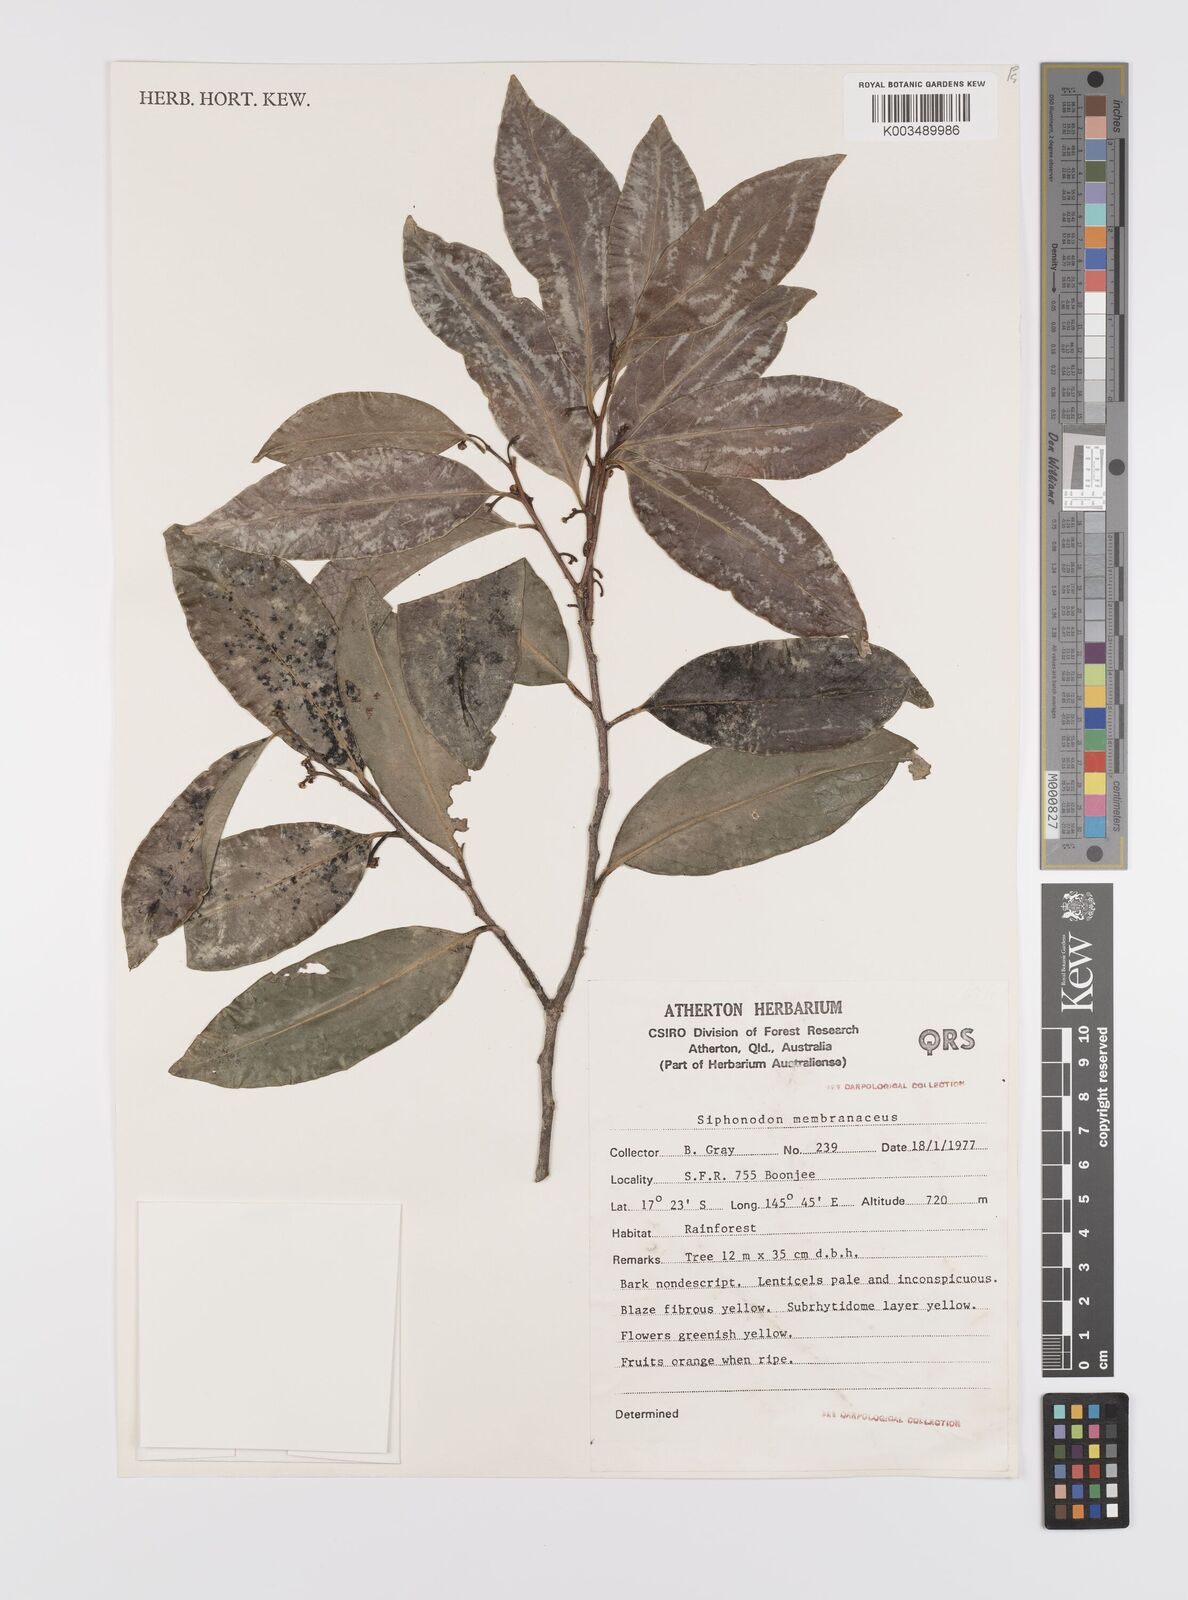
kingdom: Plantae
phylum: Tracheophyta
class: Magnoliopsida
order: Celastrales
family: Celastraceae
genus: Siphonodon
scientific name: Siphonodon membranaceus
